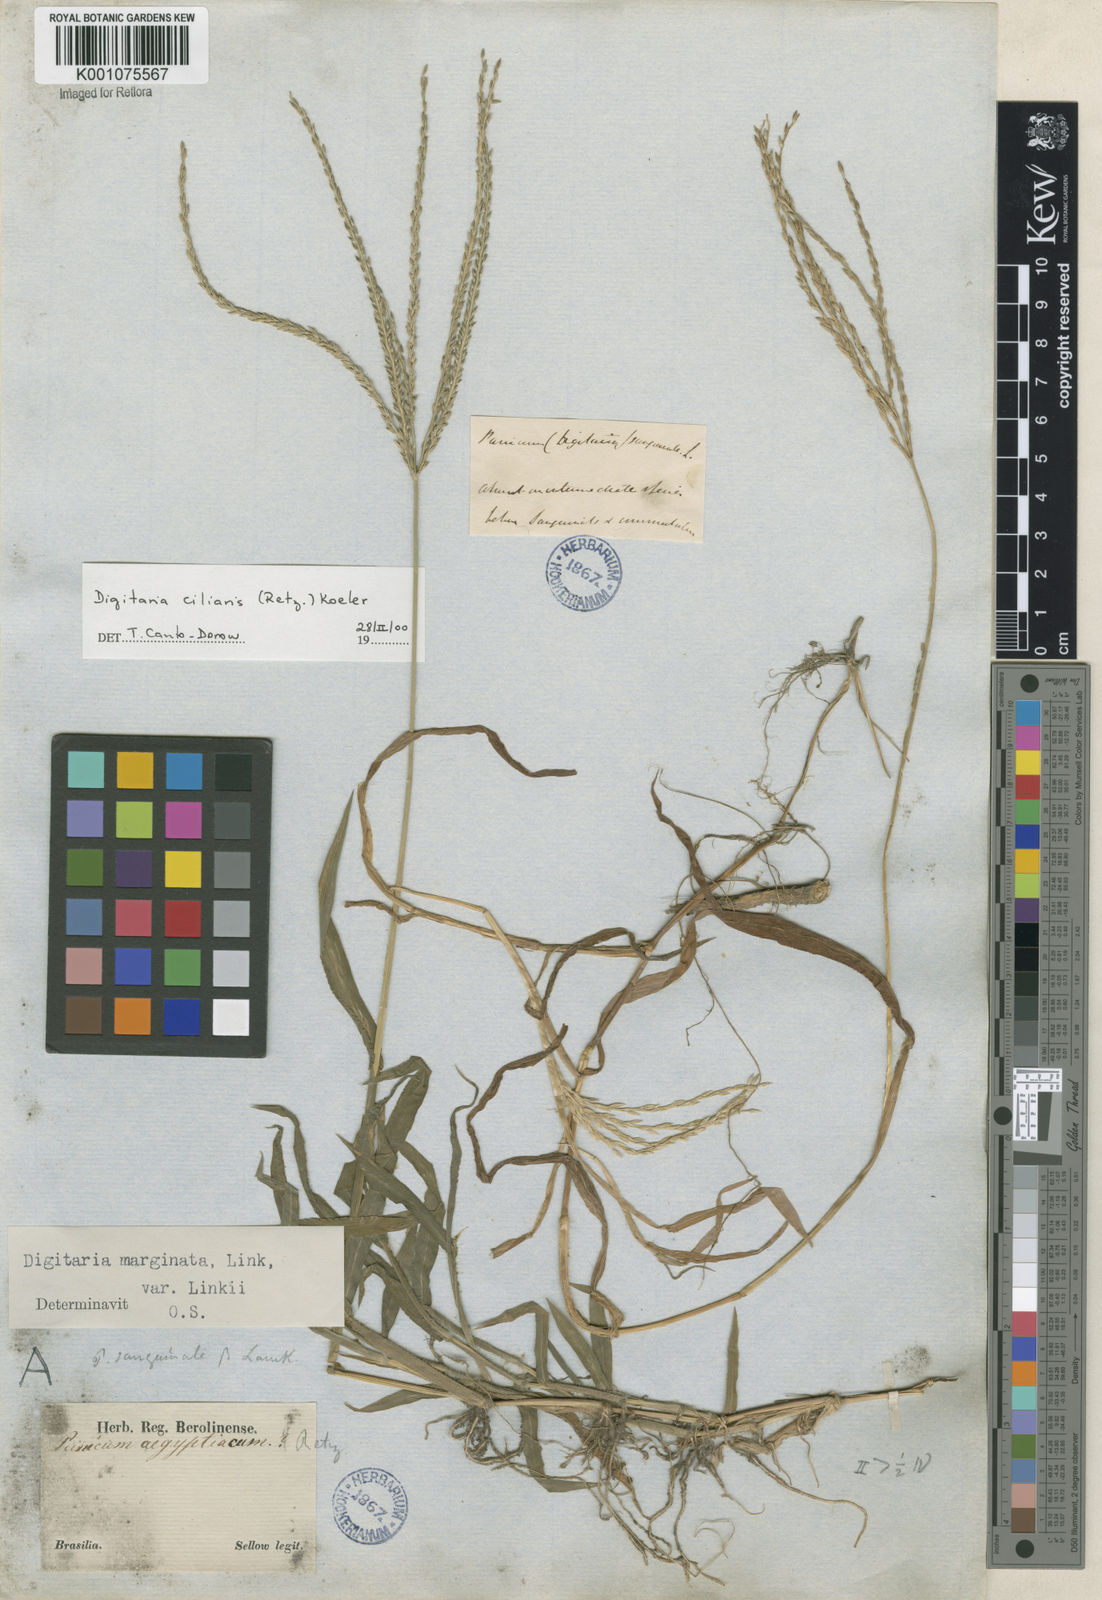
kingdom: Plantae
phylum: Tracheophyta
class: Liliopsida
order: Poales
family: Poaceae
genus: Digitaria
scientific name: Digitaria ciliaris
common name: Tropical finger-grass
